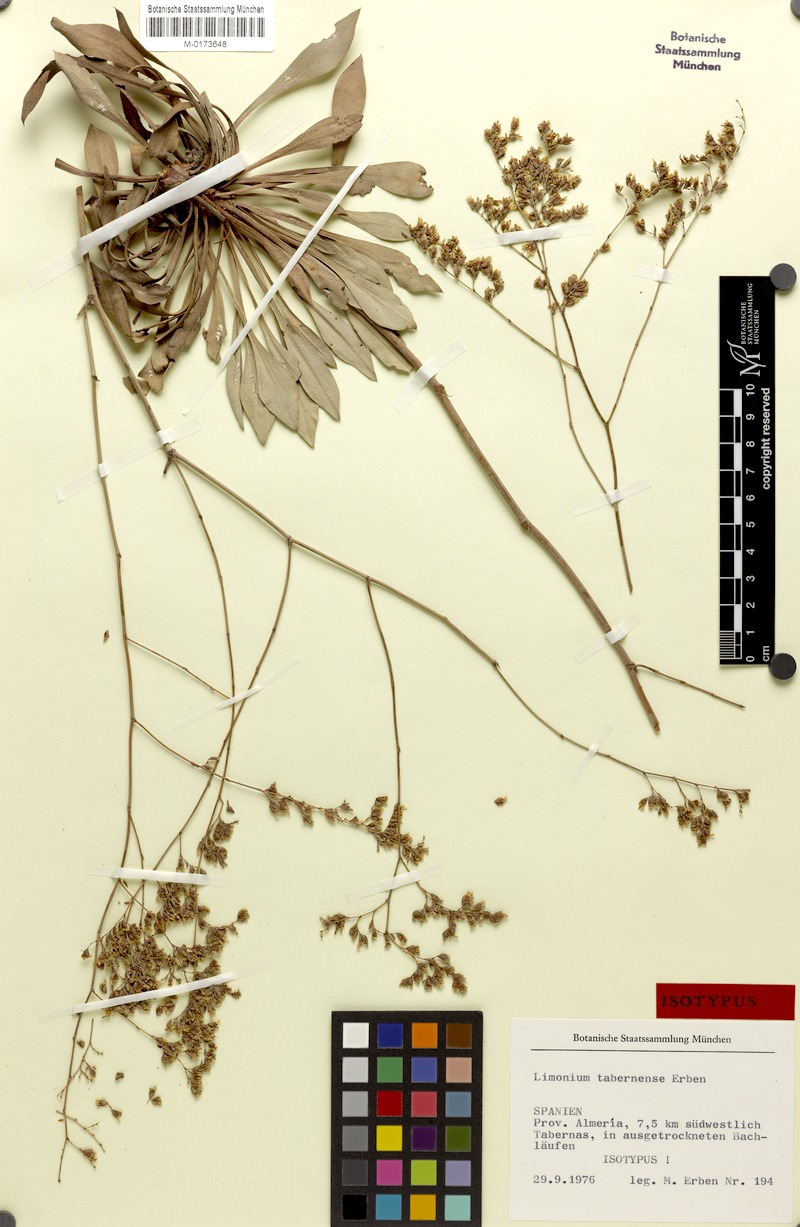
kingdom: Plantae
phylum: Tracheophyta
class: Magnoliopsida
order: Caryophyllales
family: Plumbaginaceae
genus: Limonium
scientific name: Limonium tabernense
